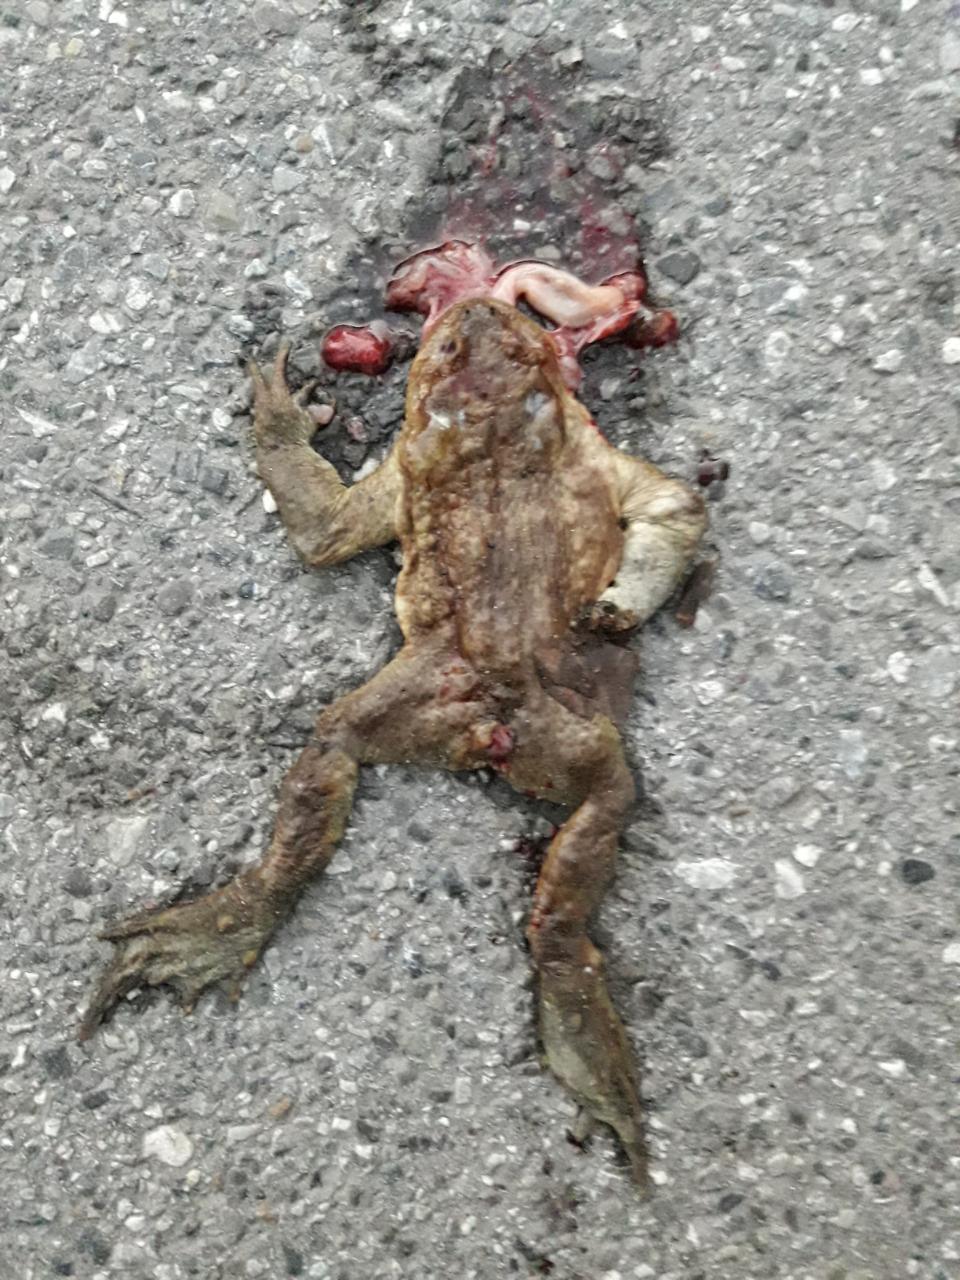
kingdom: Animalia
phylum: Chordata
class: Amphibia
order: Anura
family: Bufonidae
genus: Bufo
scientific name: Bufo bufo
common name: Common toad
